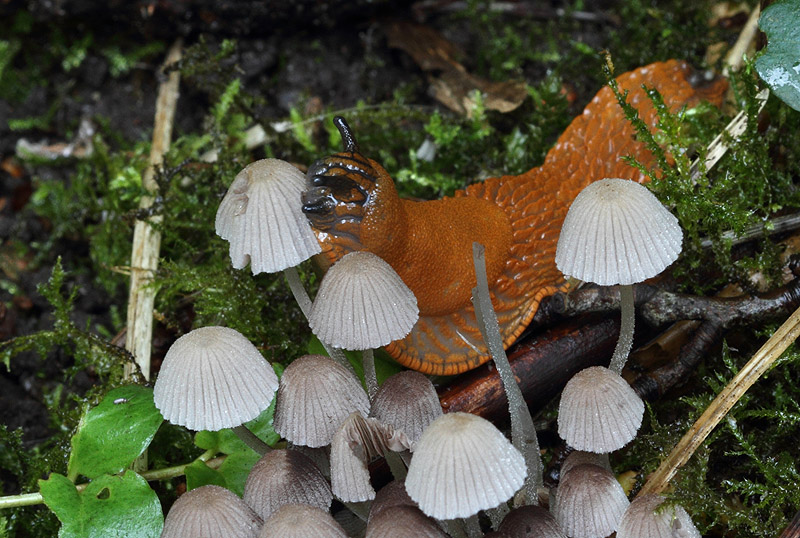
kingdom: Fungi
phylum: Basidiomycota
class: Agaricomycetes
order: Agaricales
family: Psathyrellaceae
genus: Coprinellus
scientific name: Coprinellus disseminatus
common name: bredsået blækhat
